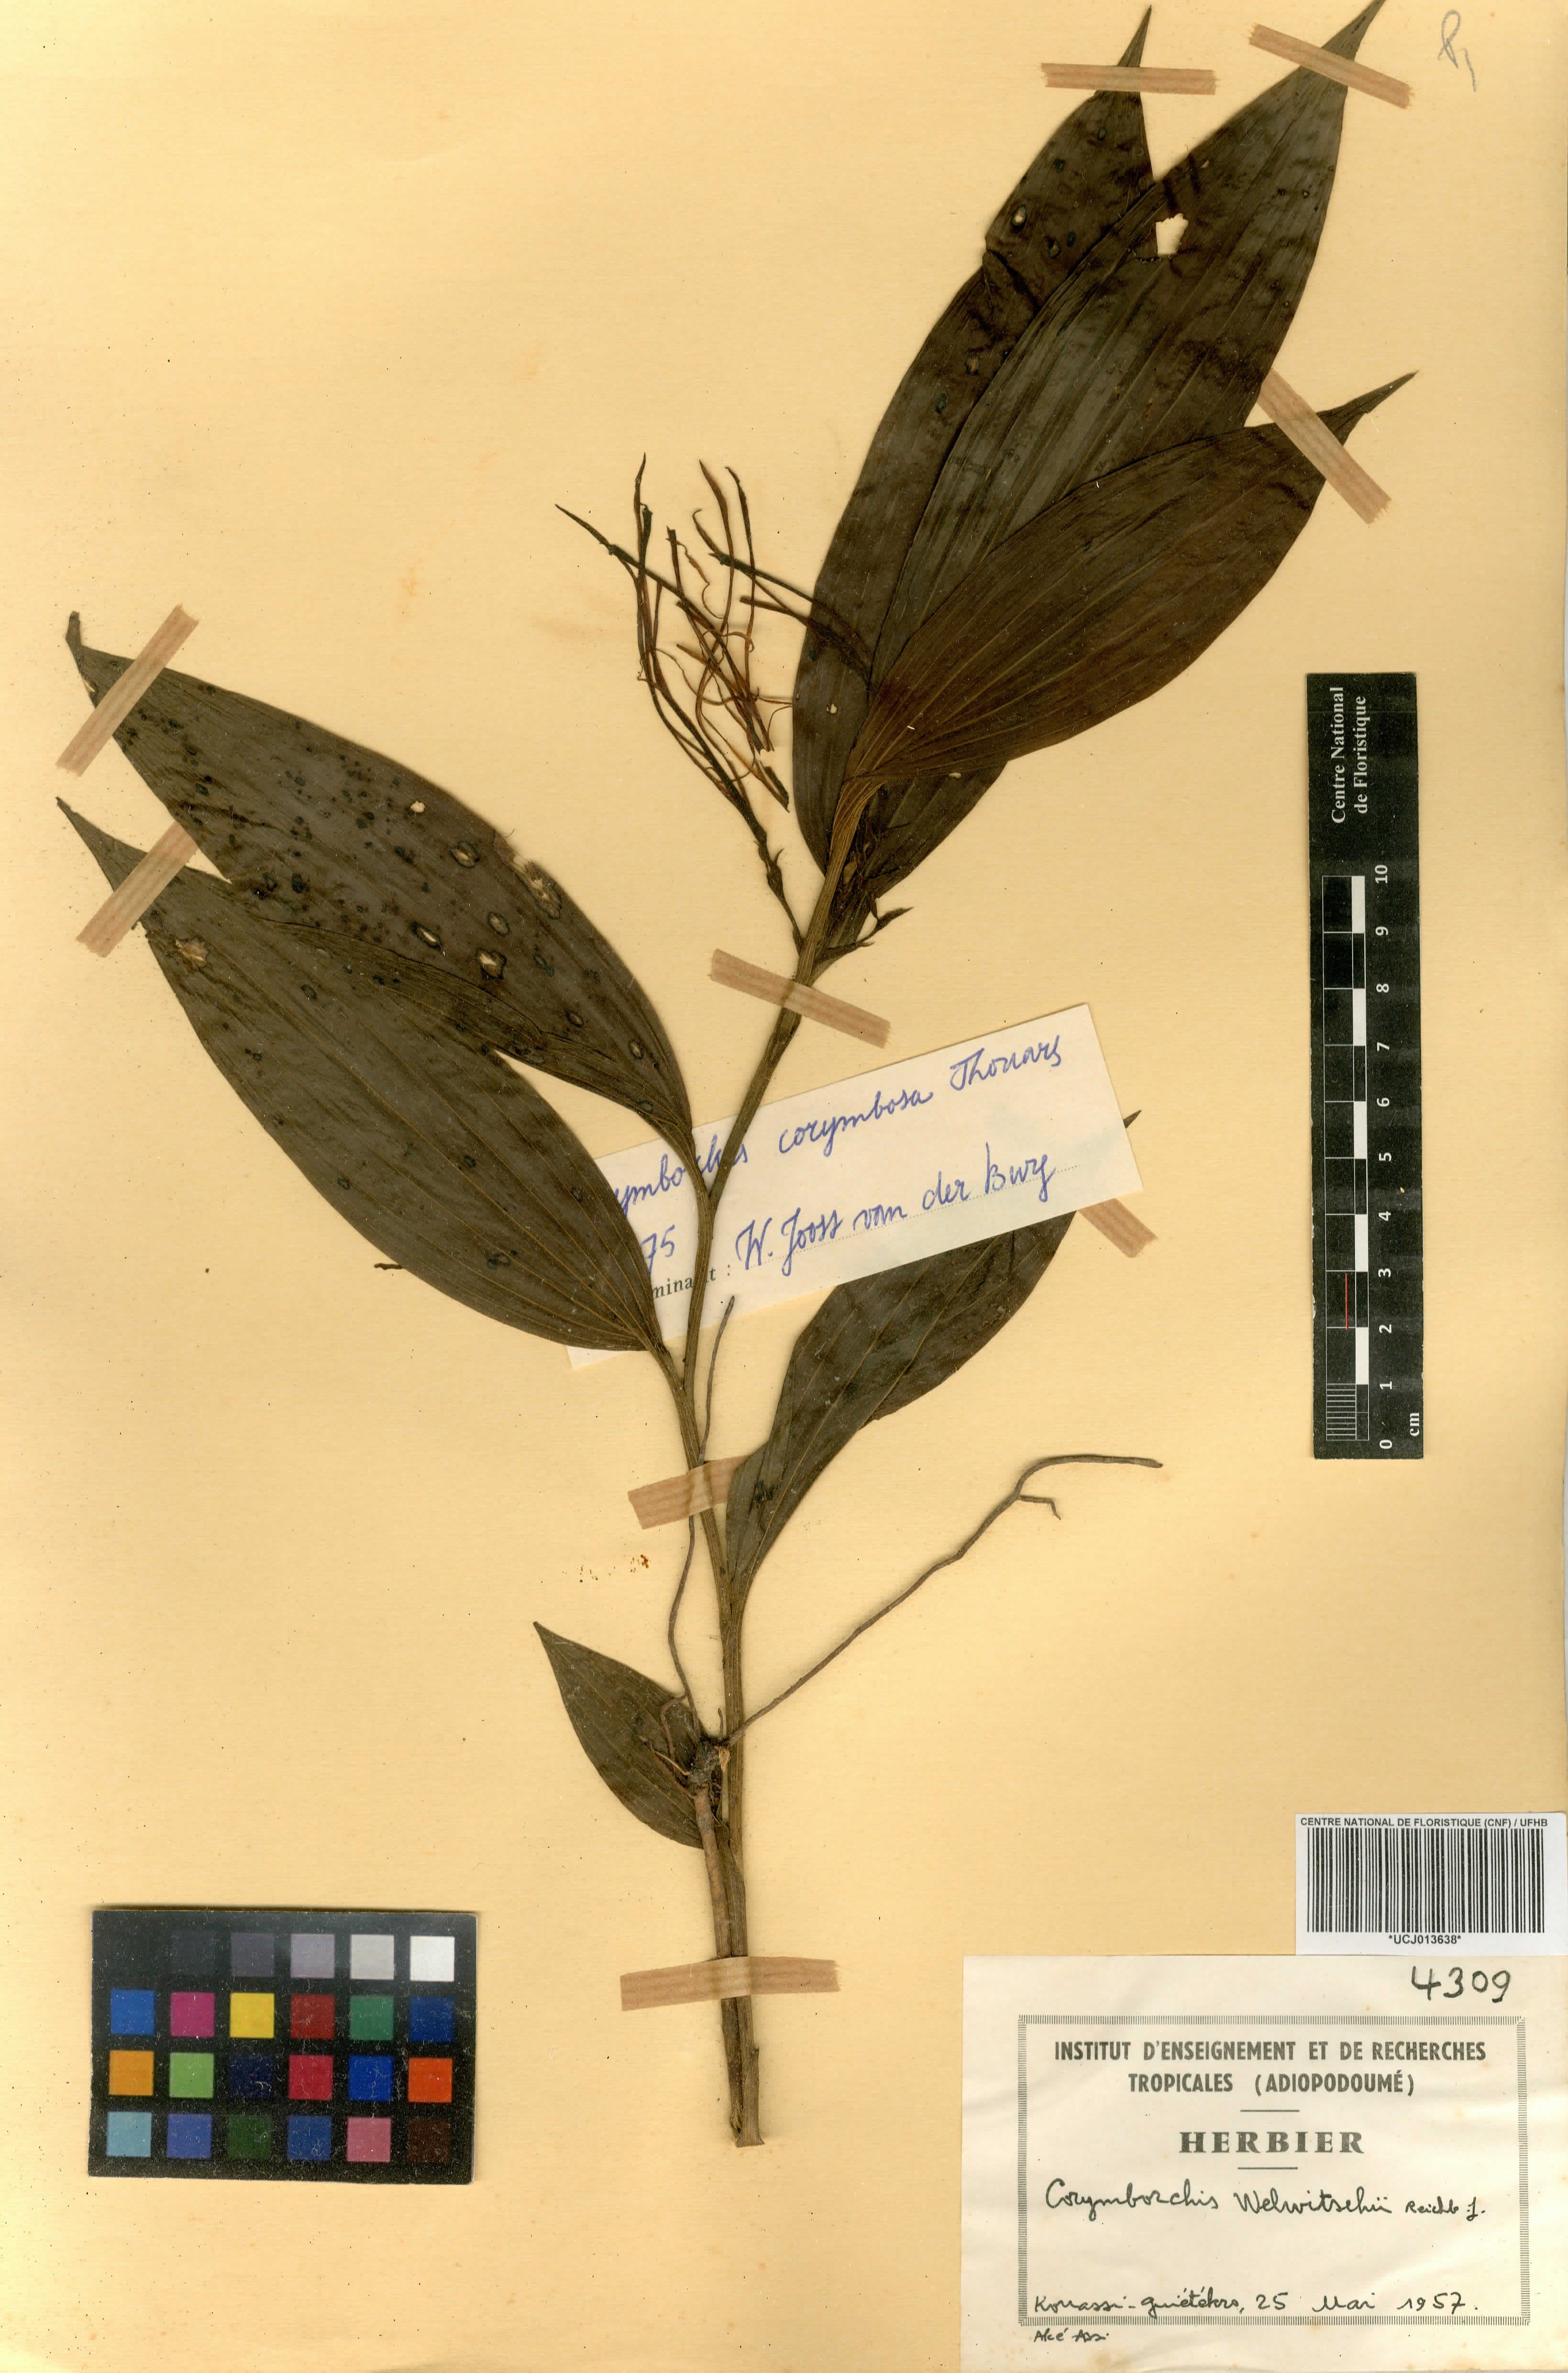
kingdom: Plantae
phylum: Tracheophyta
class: Liliopsida
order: Asparagales
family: Orchidaceae
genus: Corymborkis
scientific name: Corymborkis corymbis
